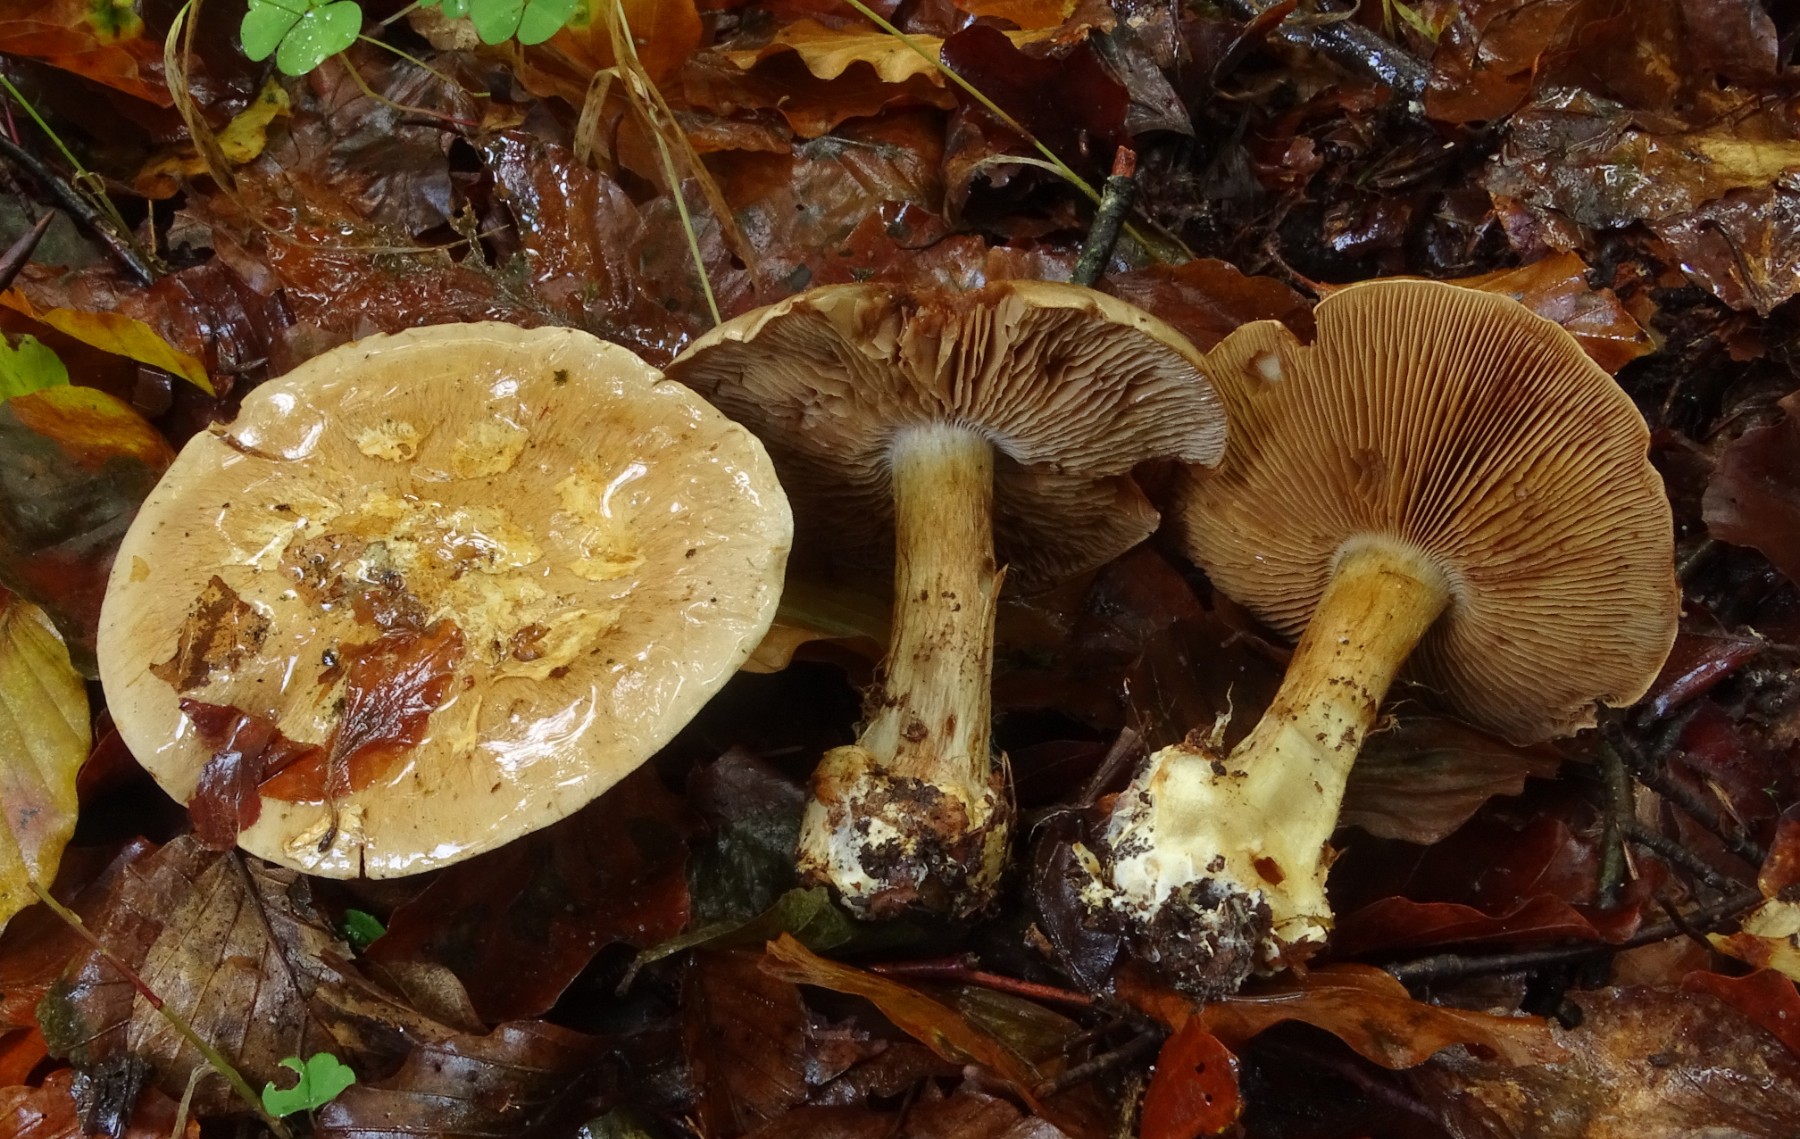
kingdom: Fungi
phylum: Basidiomycota
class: Agaricomycetes
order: Agaricales
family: Cortinariaceae
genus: Cortinarius
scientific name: Cortinarius
